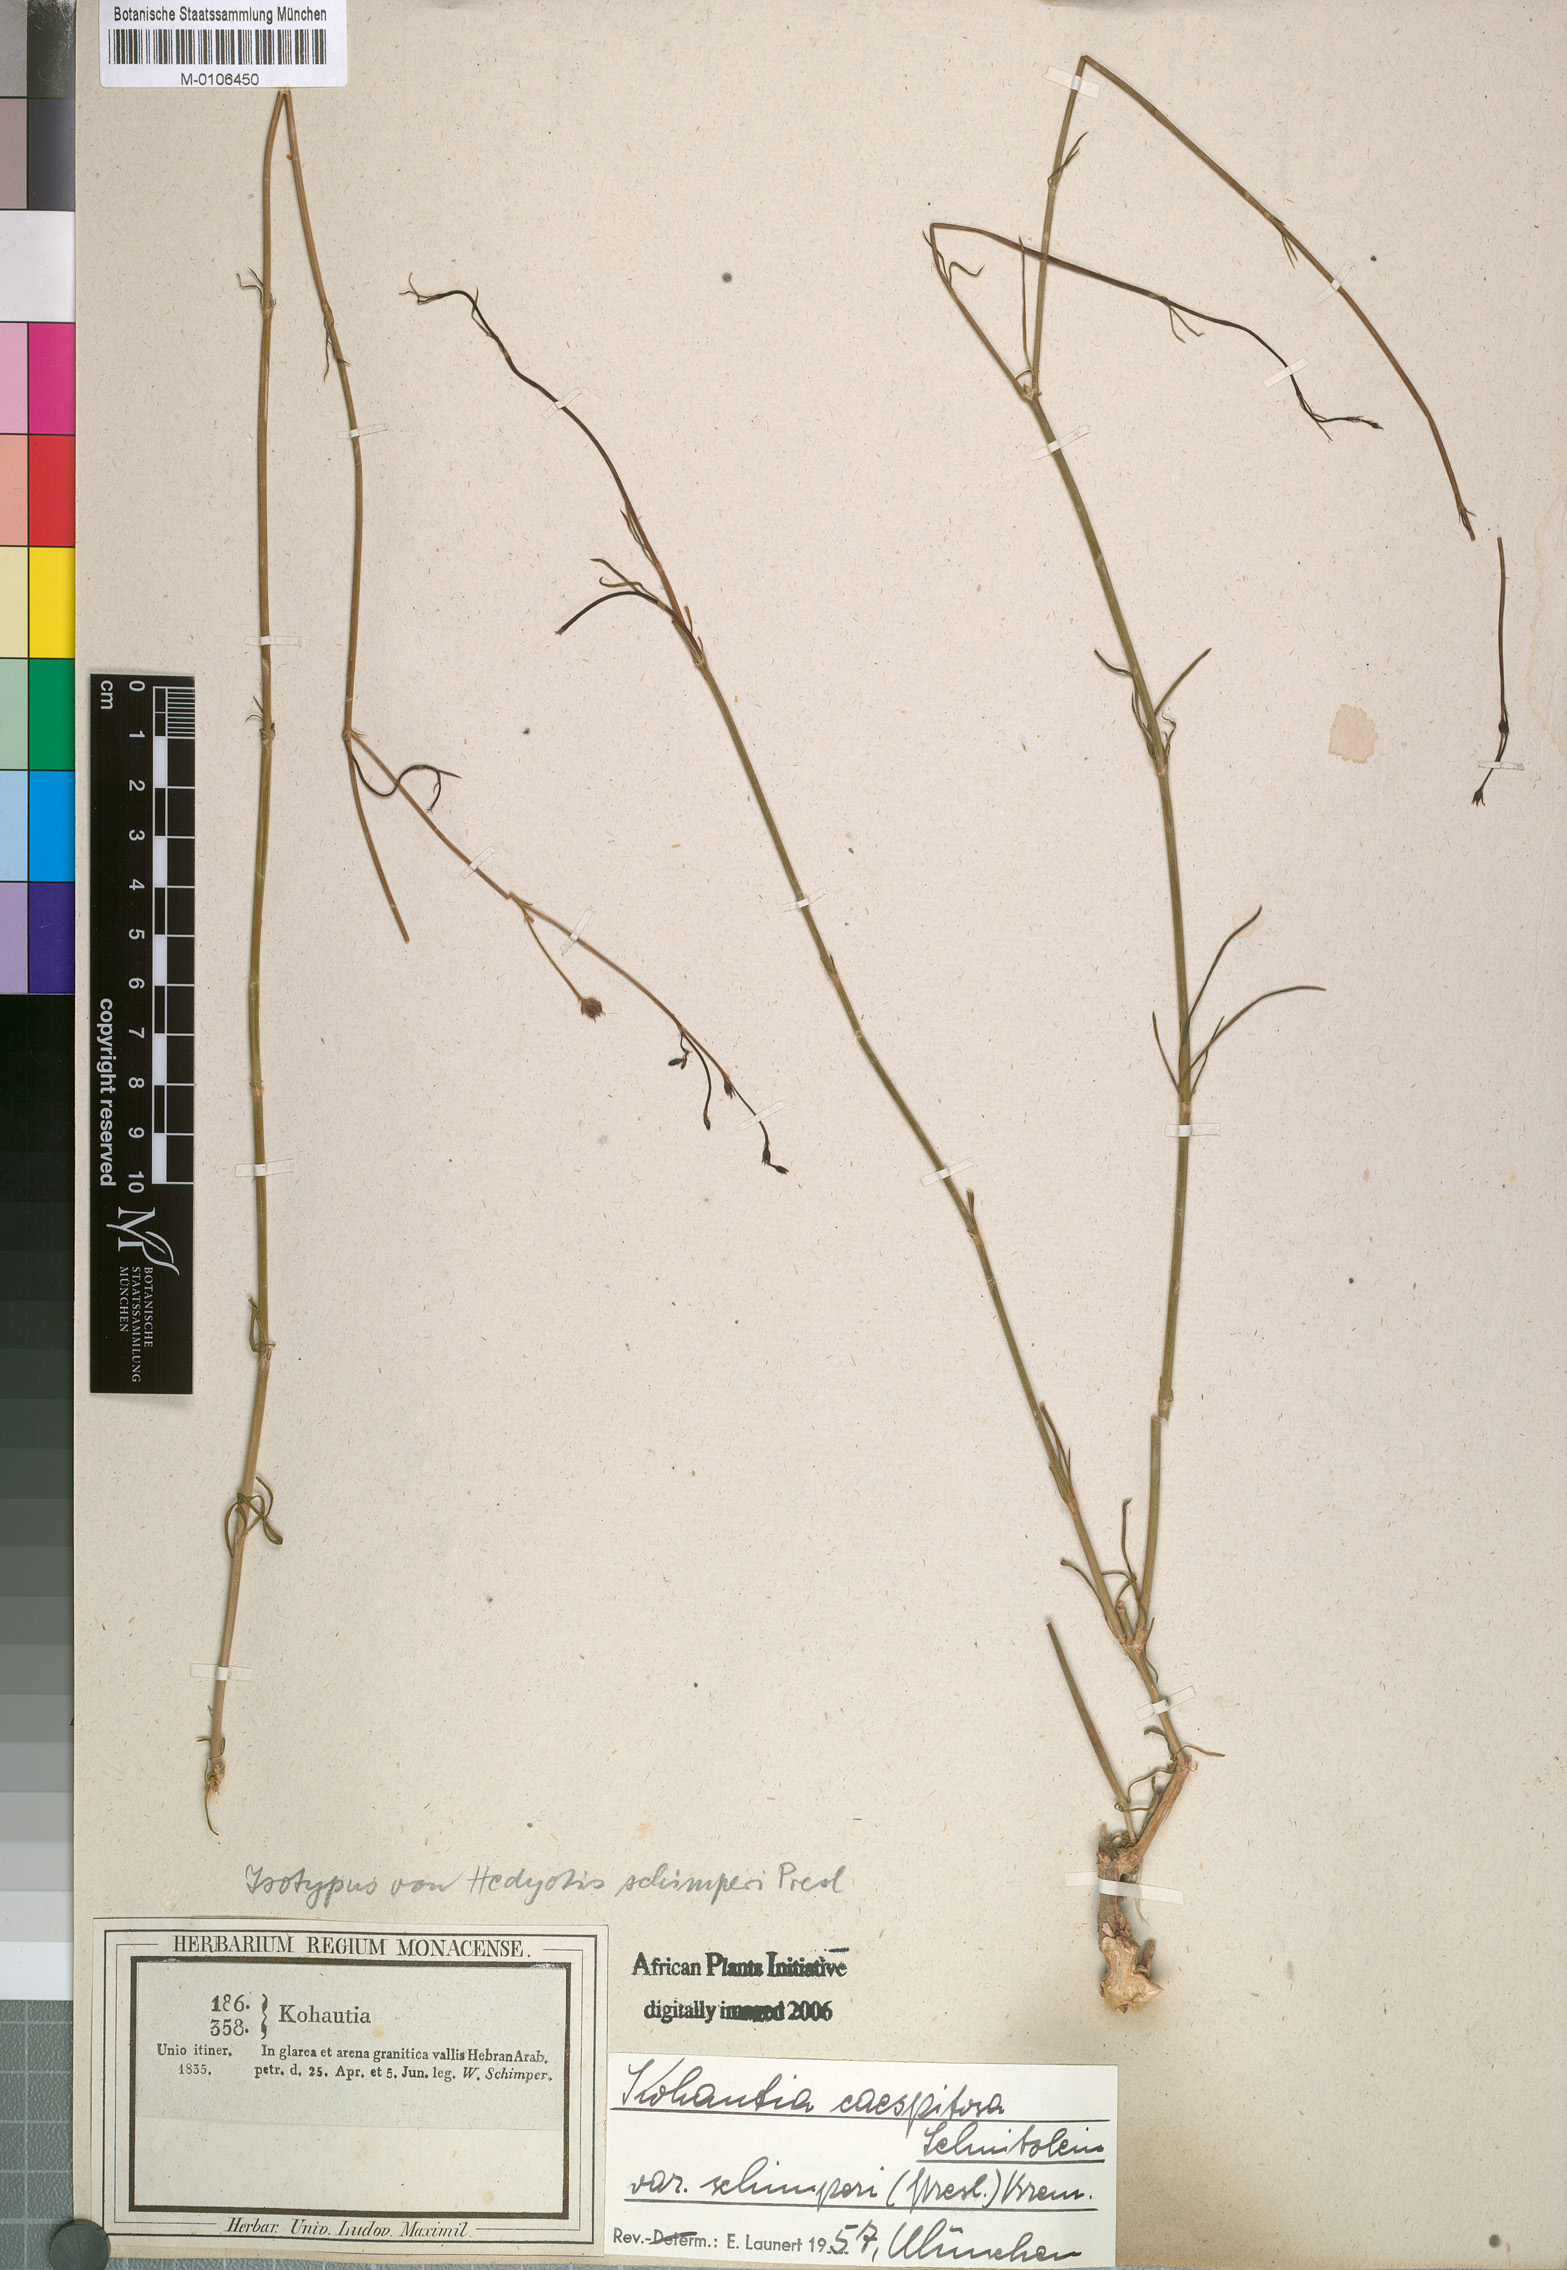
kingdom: Plantae
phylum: Tracheophyta
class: Magnoliopsida
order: Gentianales
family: Rubiaceae
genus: Kohautia
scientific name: Kohautia caespitosa
